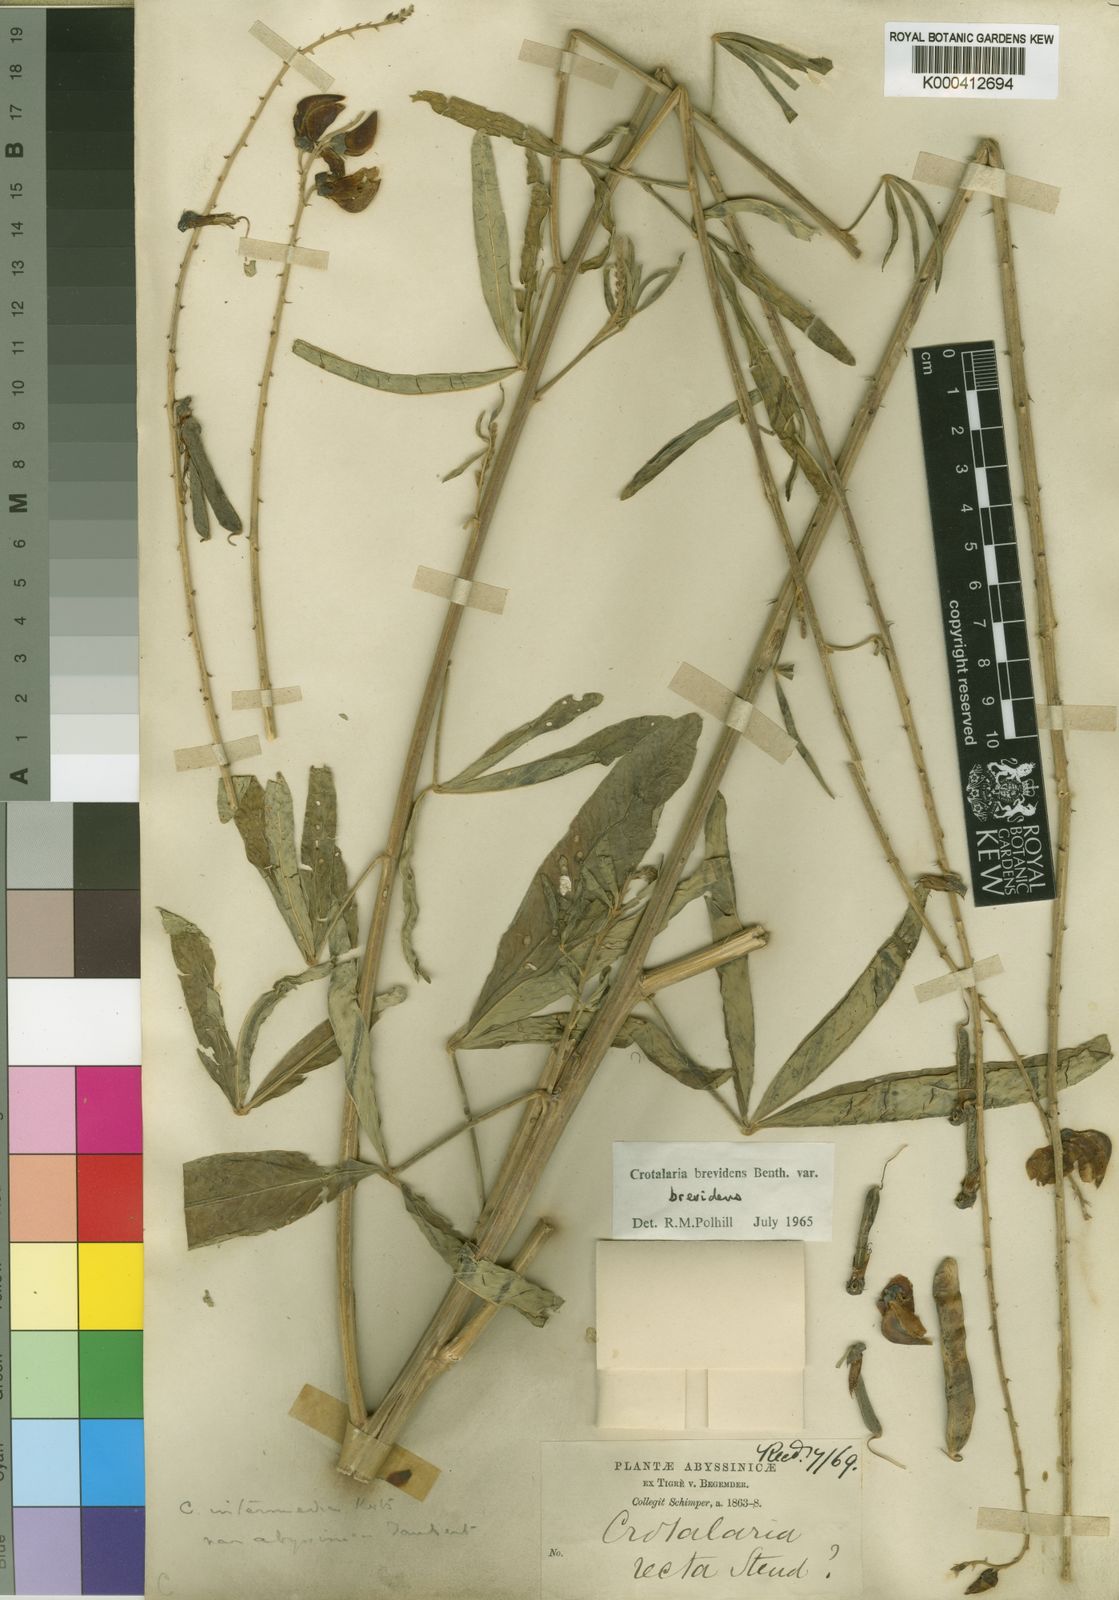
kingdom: Plantae
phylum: Tracheophyta
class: Magnoliopsida
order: Fabales
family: Fabaceae
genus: Crotalaria
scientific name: Crotalaria brevidens
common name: Ethiopian rattlebox
